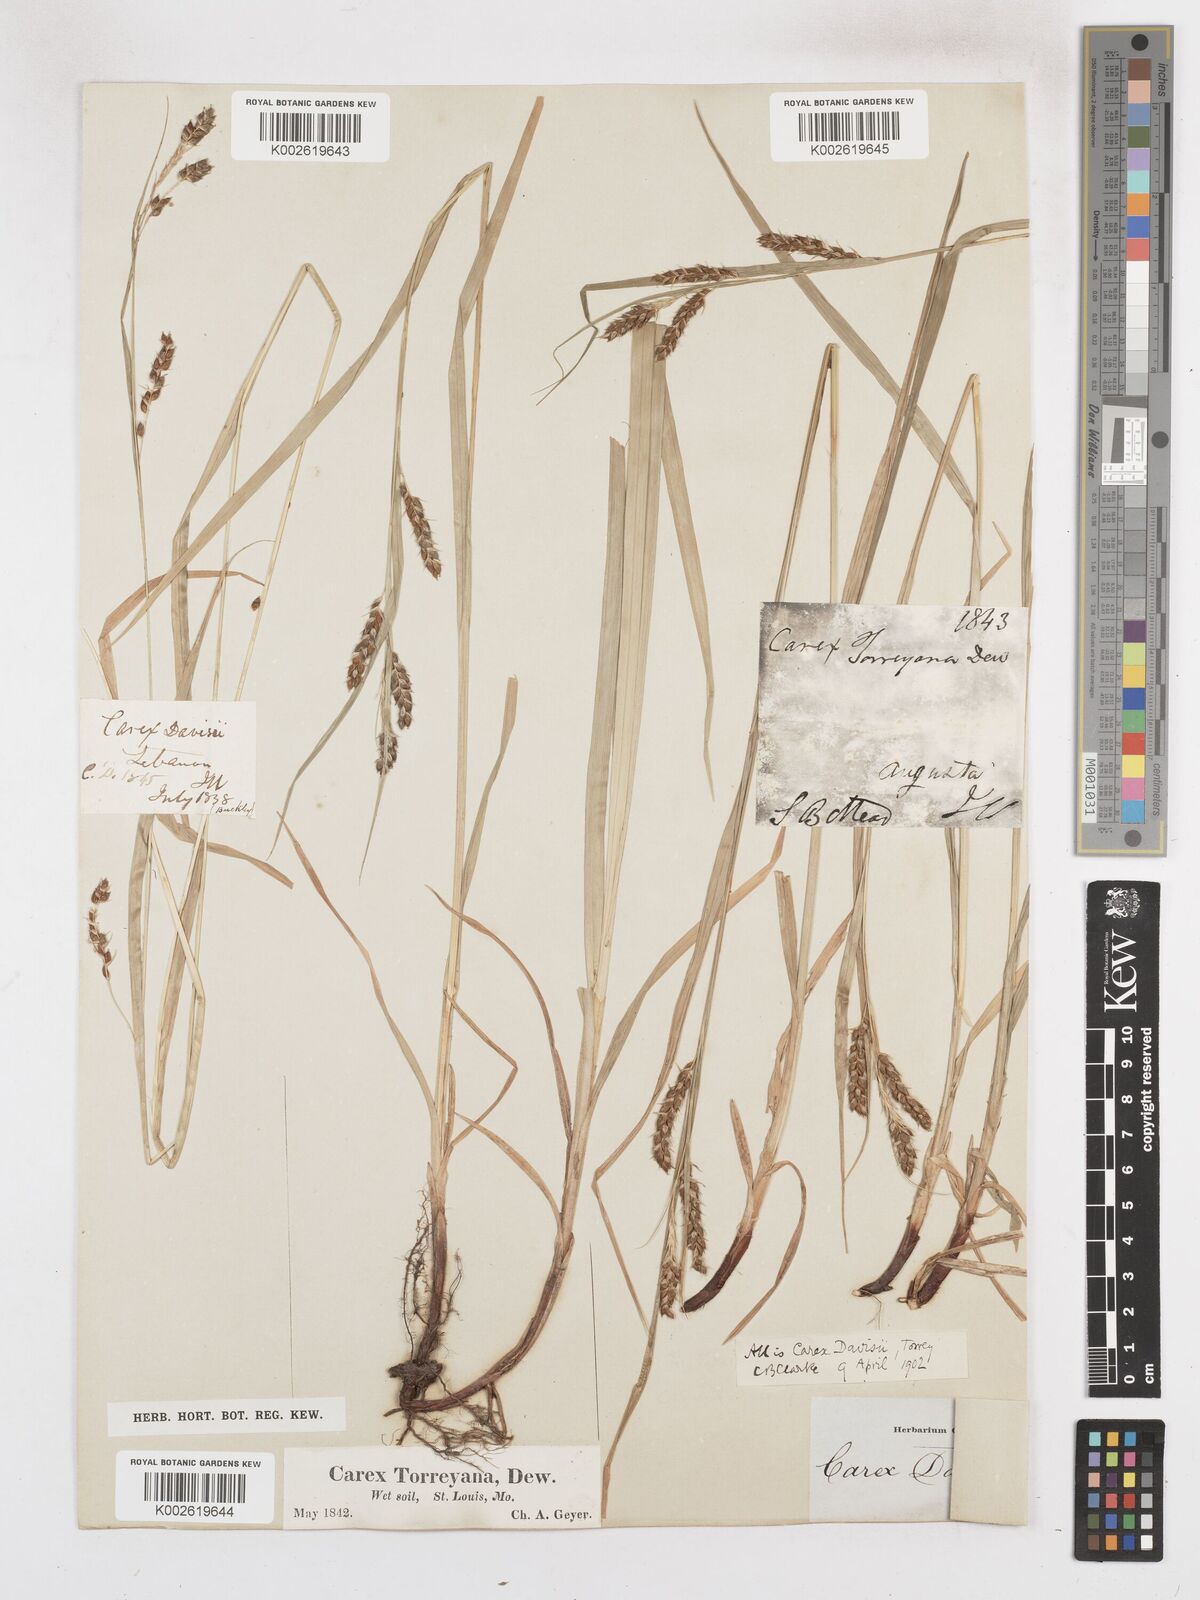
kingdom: Plantae
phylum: Tracheophyta
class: Liliopsida
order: Poales
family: Cyperaceae
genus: Carex
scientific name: Carex davisii
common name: Davis' sedge
